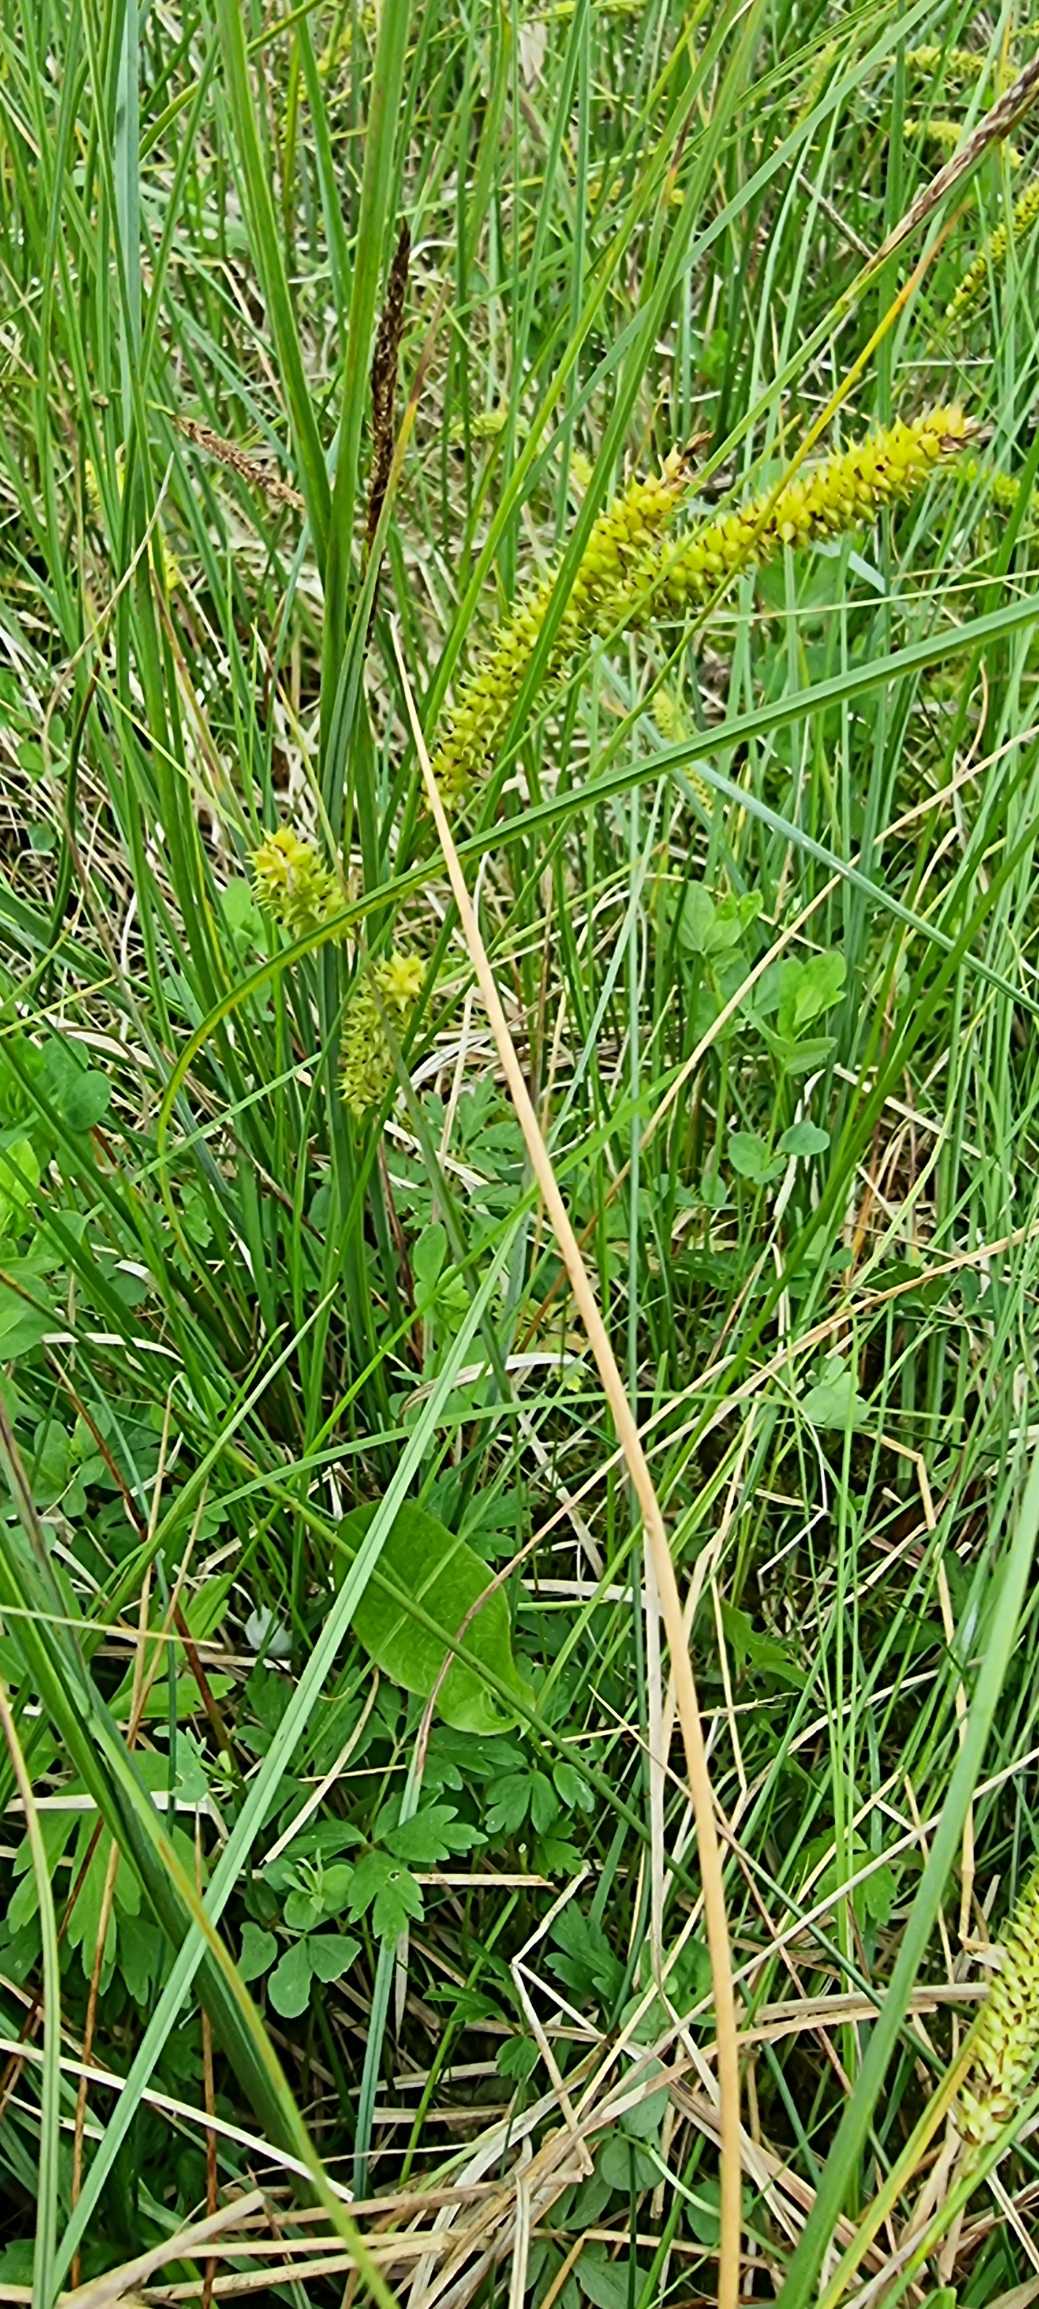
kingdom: Plantae
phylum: Tracheophyta
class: Liliopsida
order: Poales
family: Cyperaceae
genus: Carex
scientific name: Carex rostrata
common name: Næb-star
